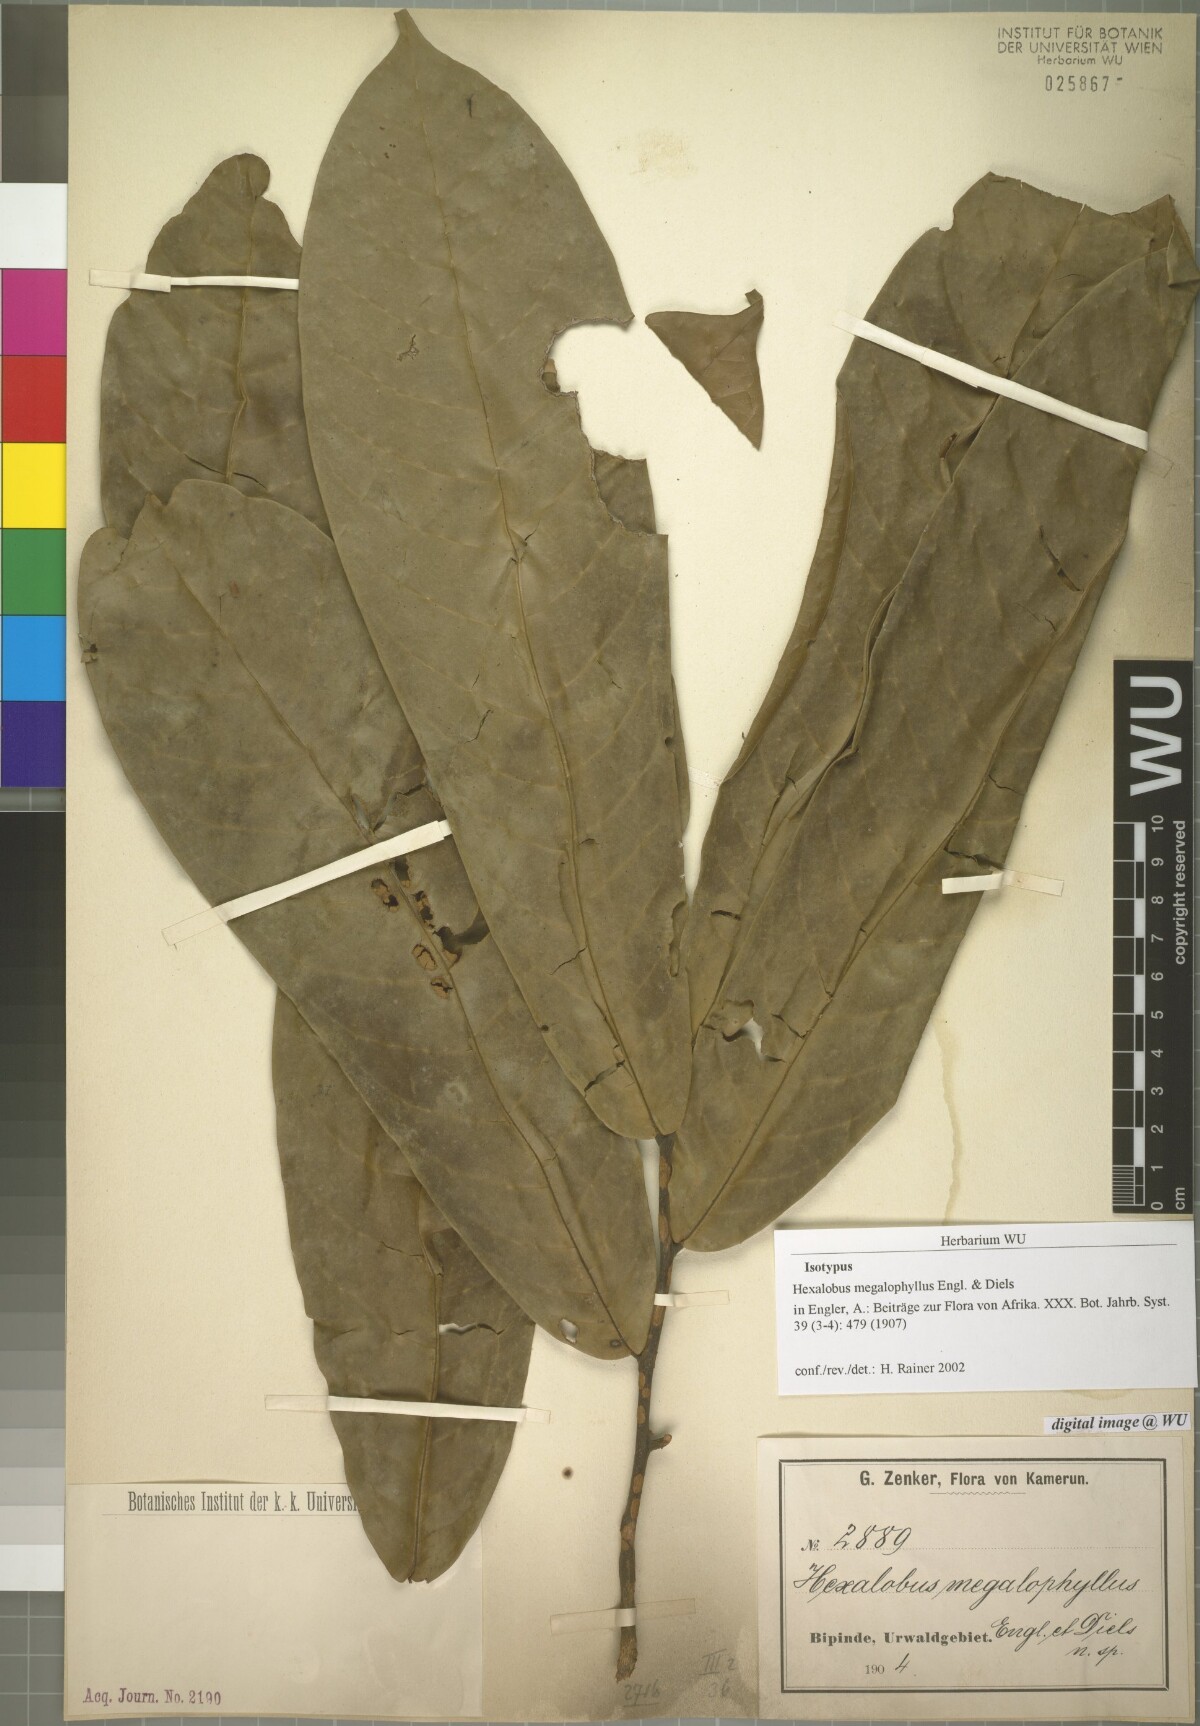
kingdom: Plantae
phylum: Tracheophyta
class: Magnoliopsida
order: Magnoliales
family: Annonaceae
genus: Hexalobus
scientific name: Hexalobus bussei
